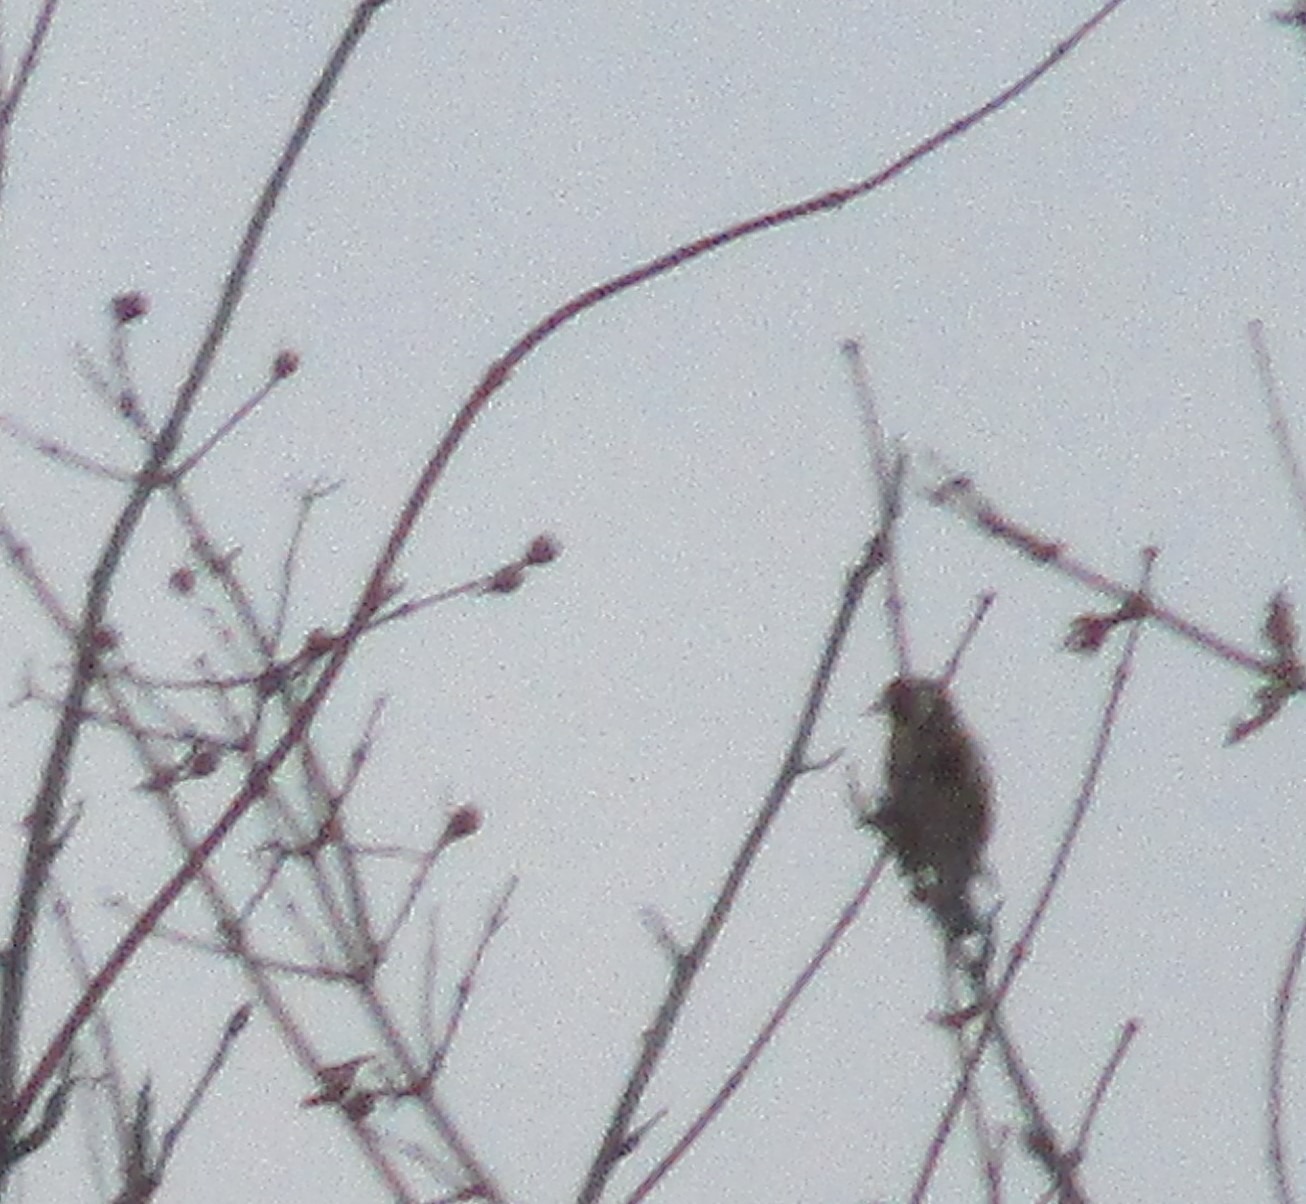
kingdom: Animalia
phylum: Chordata
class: Aves
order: Passeriformes
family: Fringillidae
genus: Carduelis
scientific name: Carduelis carduelis
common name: Stillits
